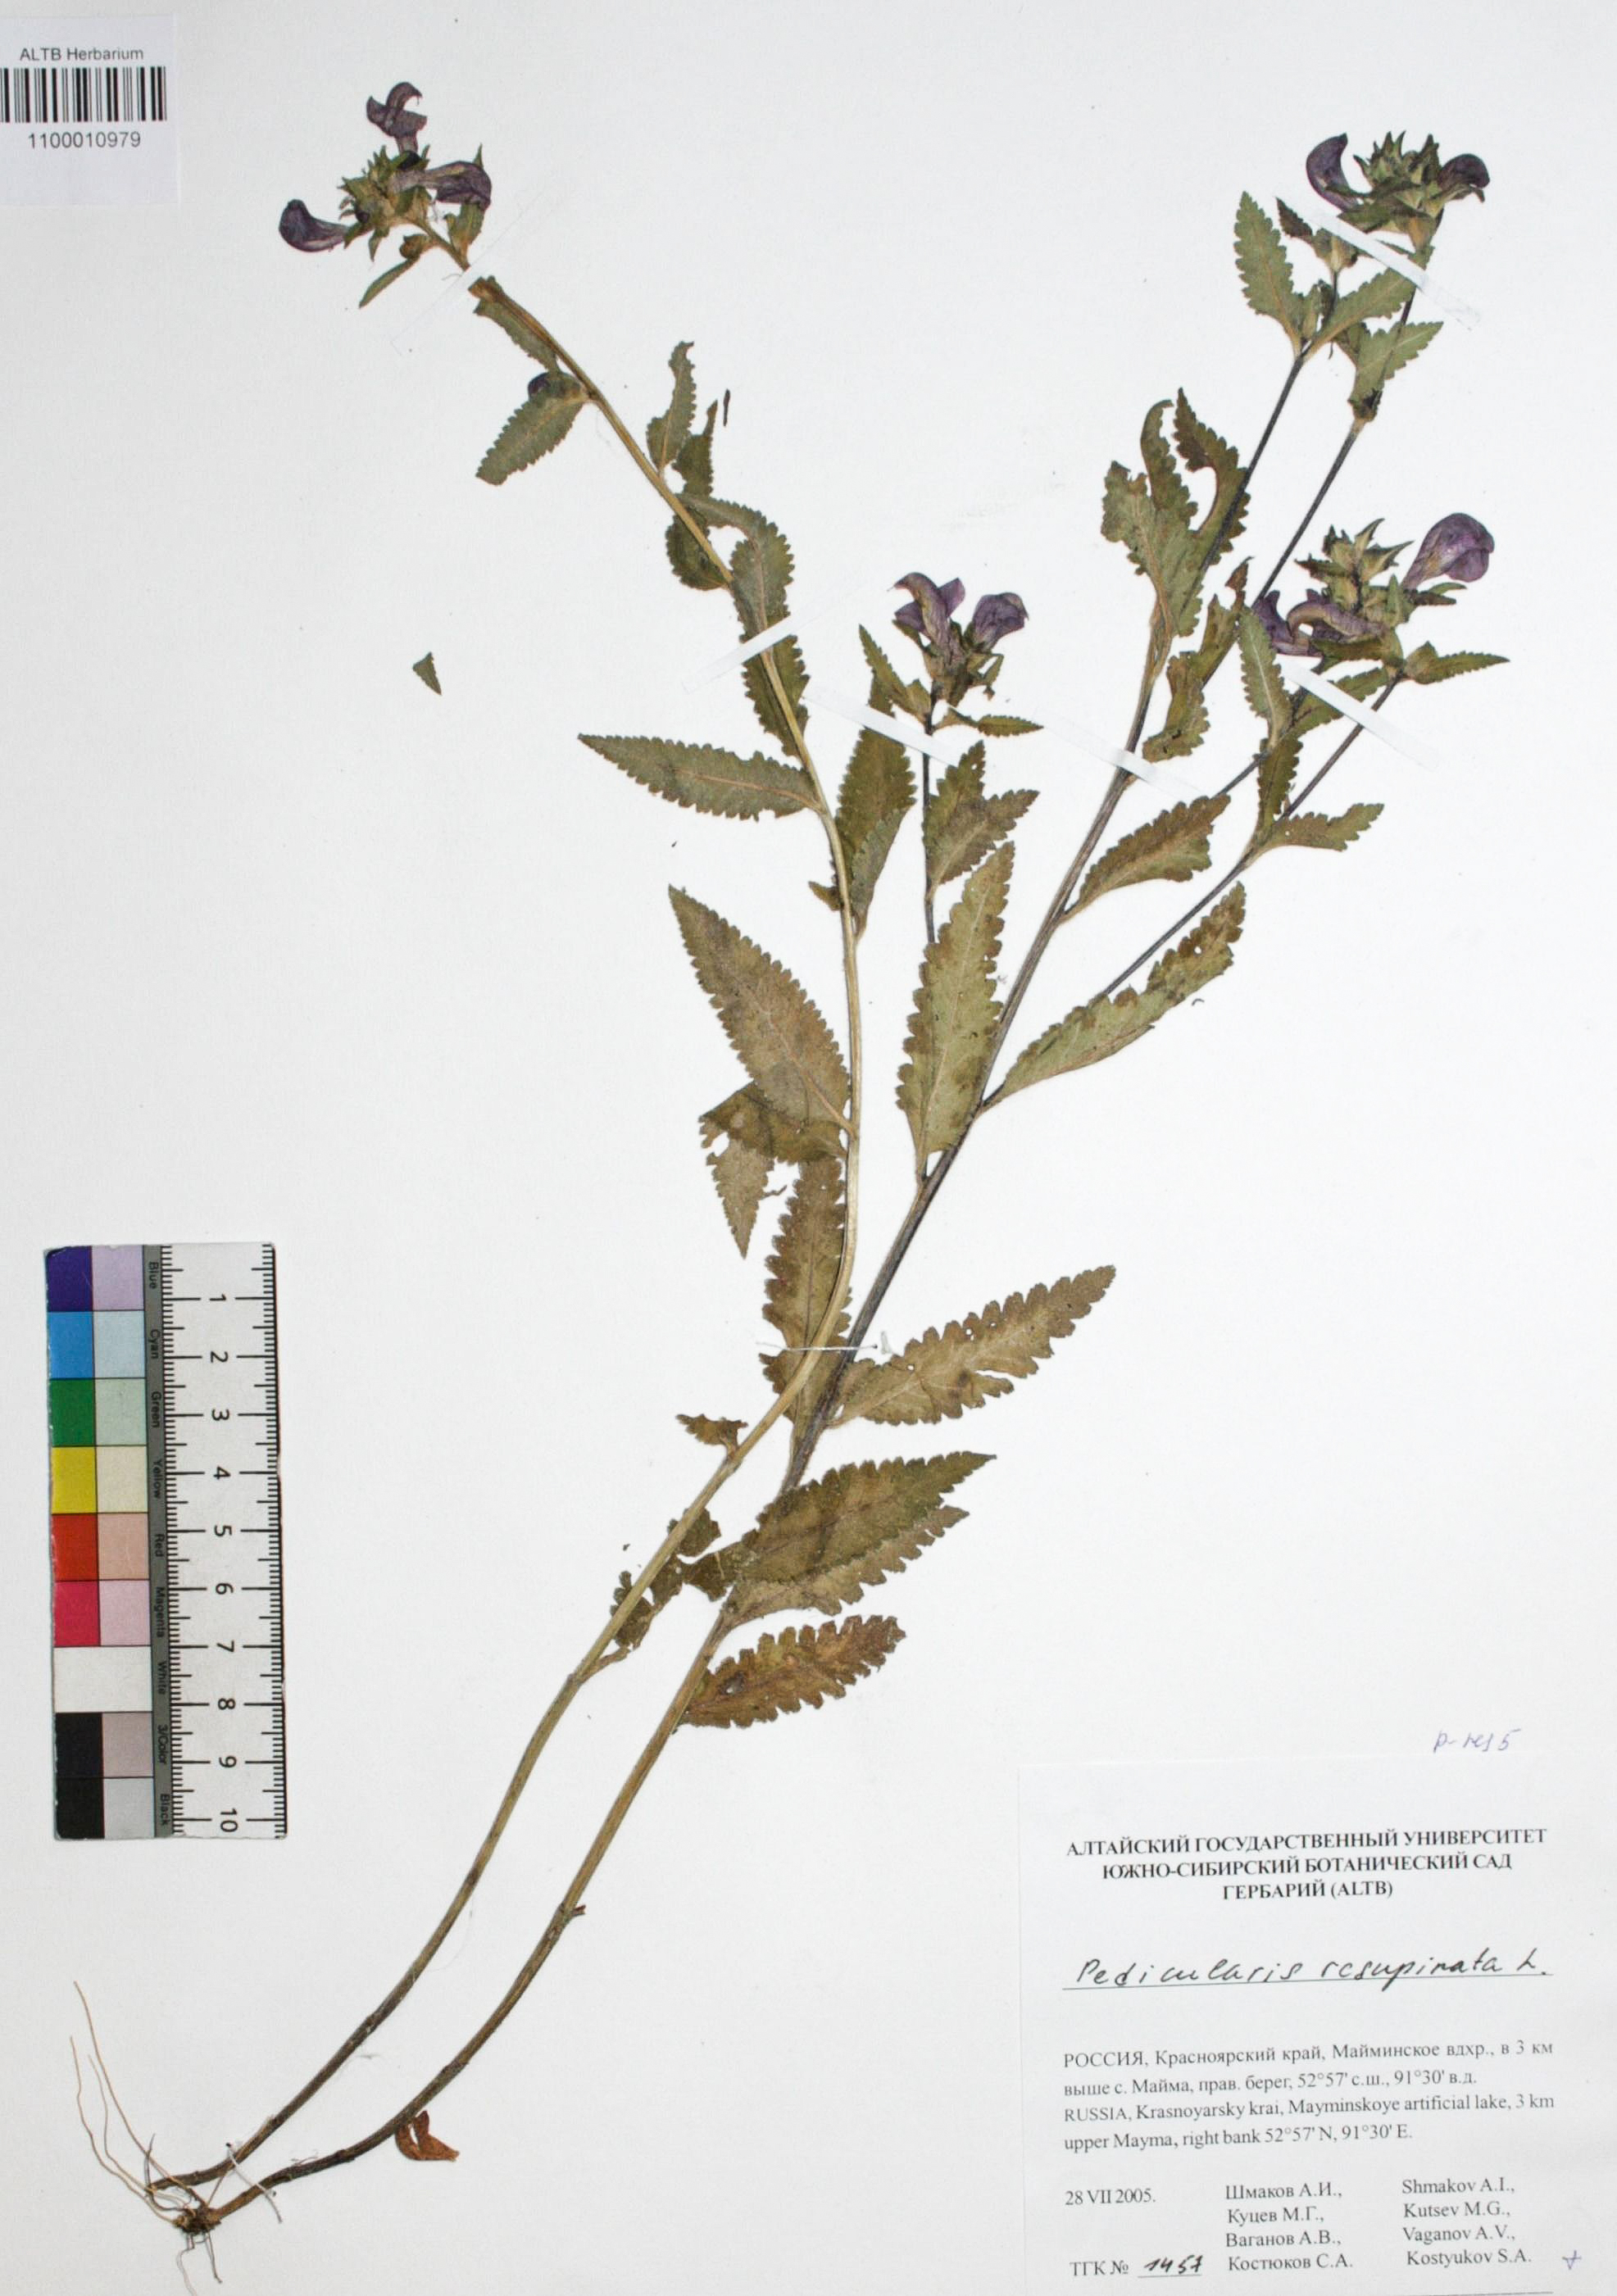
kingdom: Plantae
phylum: Tracheophyta
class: Magnoliopsida
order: Lamiales
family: Orobanchaceae
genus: Pedicularis
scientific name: Pedicularis resupinata
